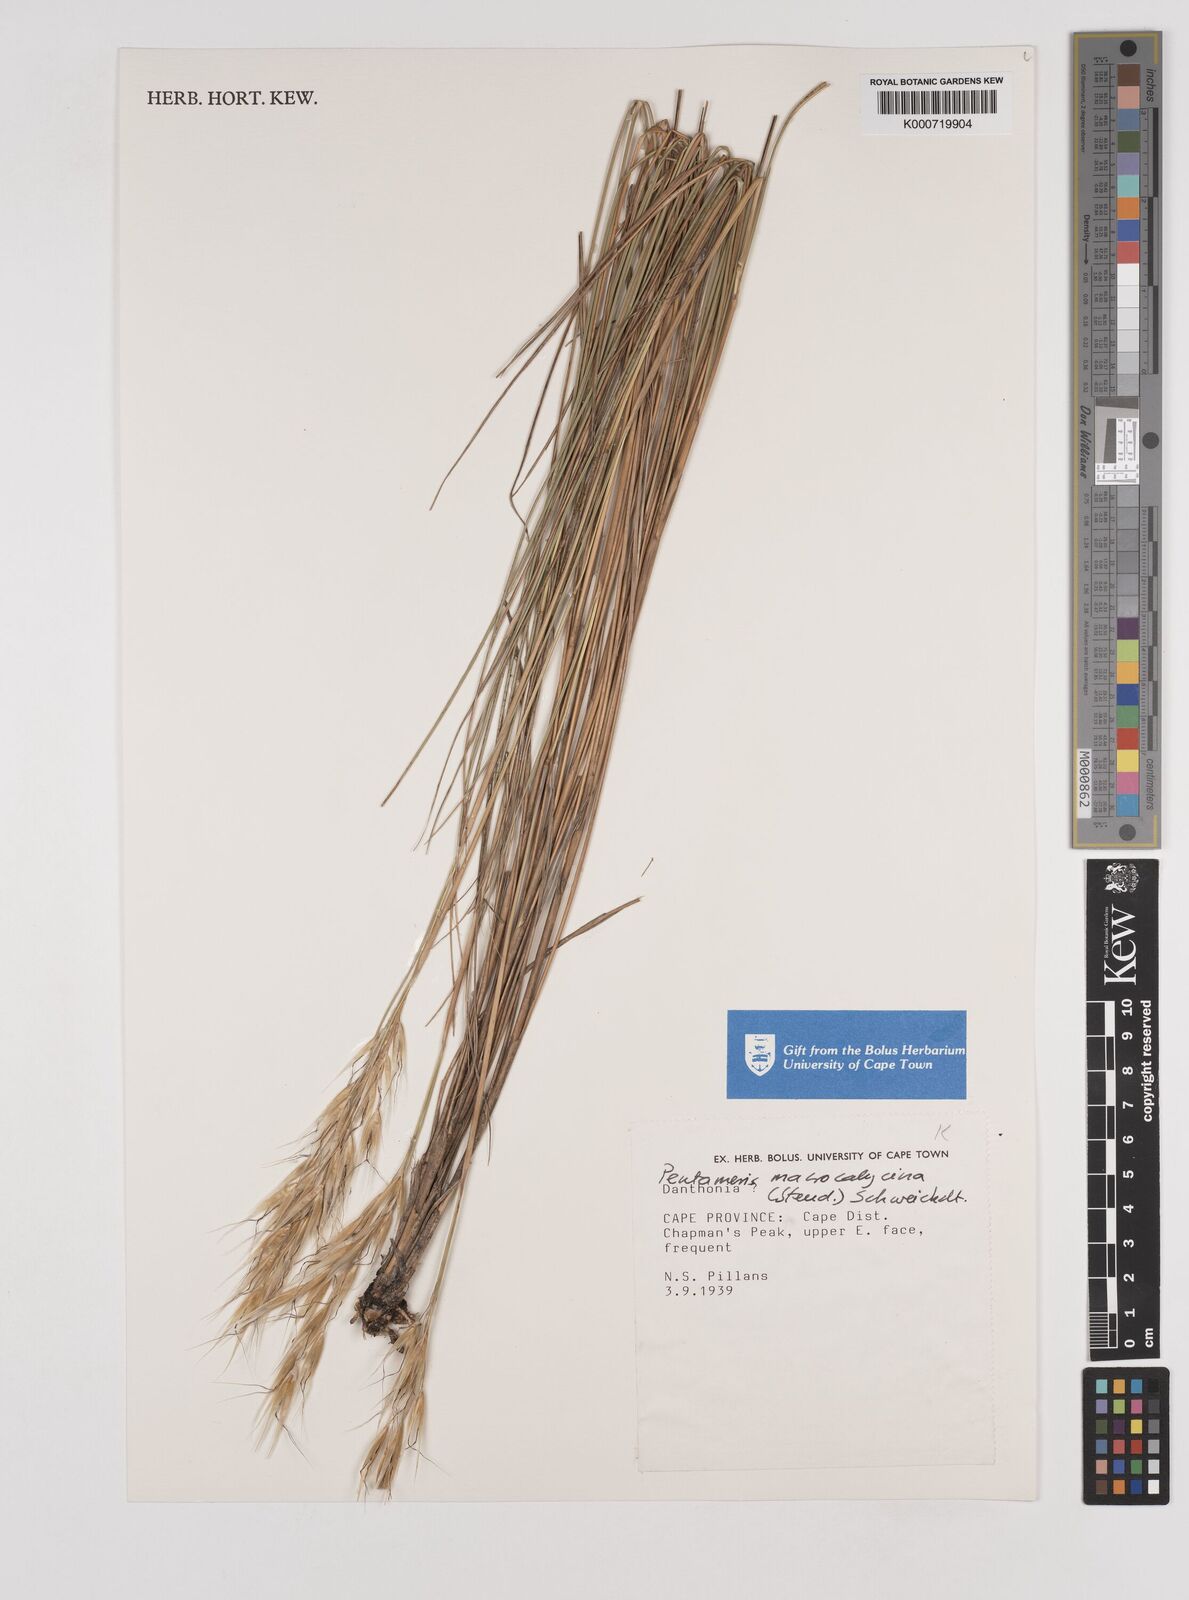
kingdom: Plantae
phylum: Tracheophyta
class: Liliopsida
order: Poales
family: Poaceae
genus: Pentameris
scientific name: Pentameris macrocalycina
